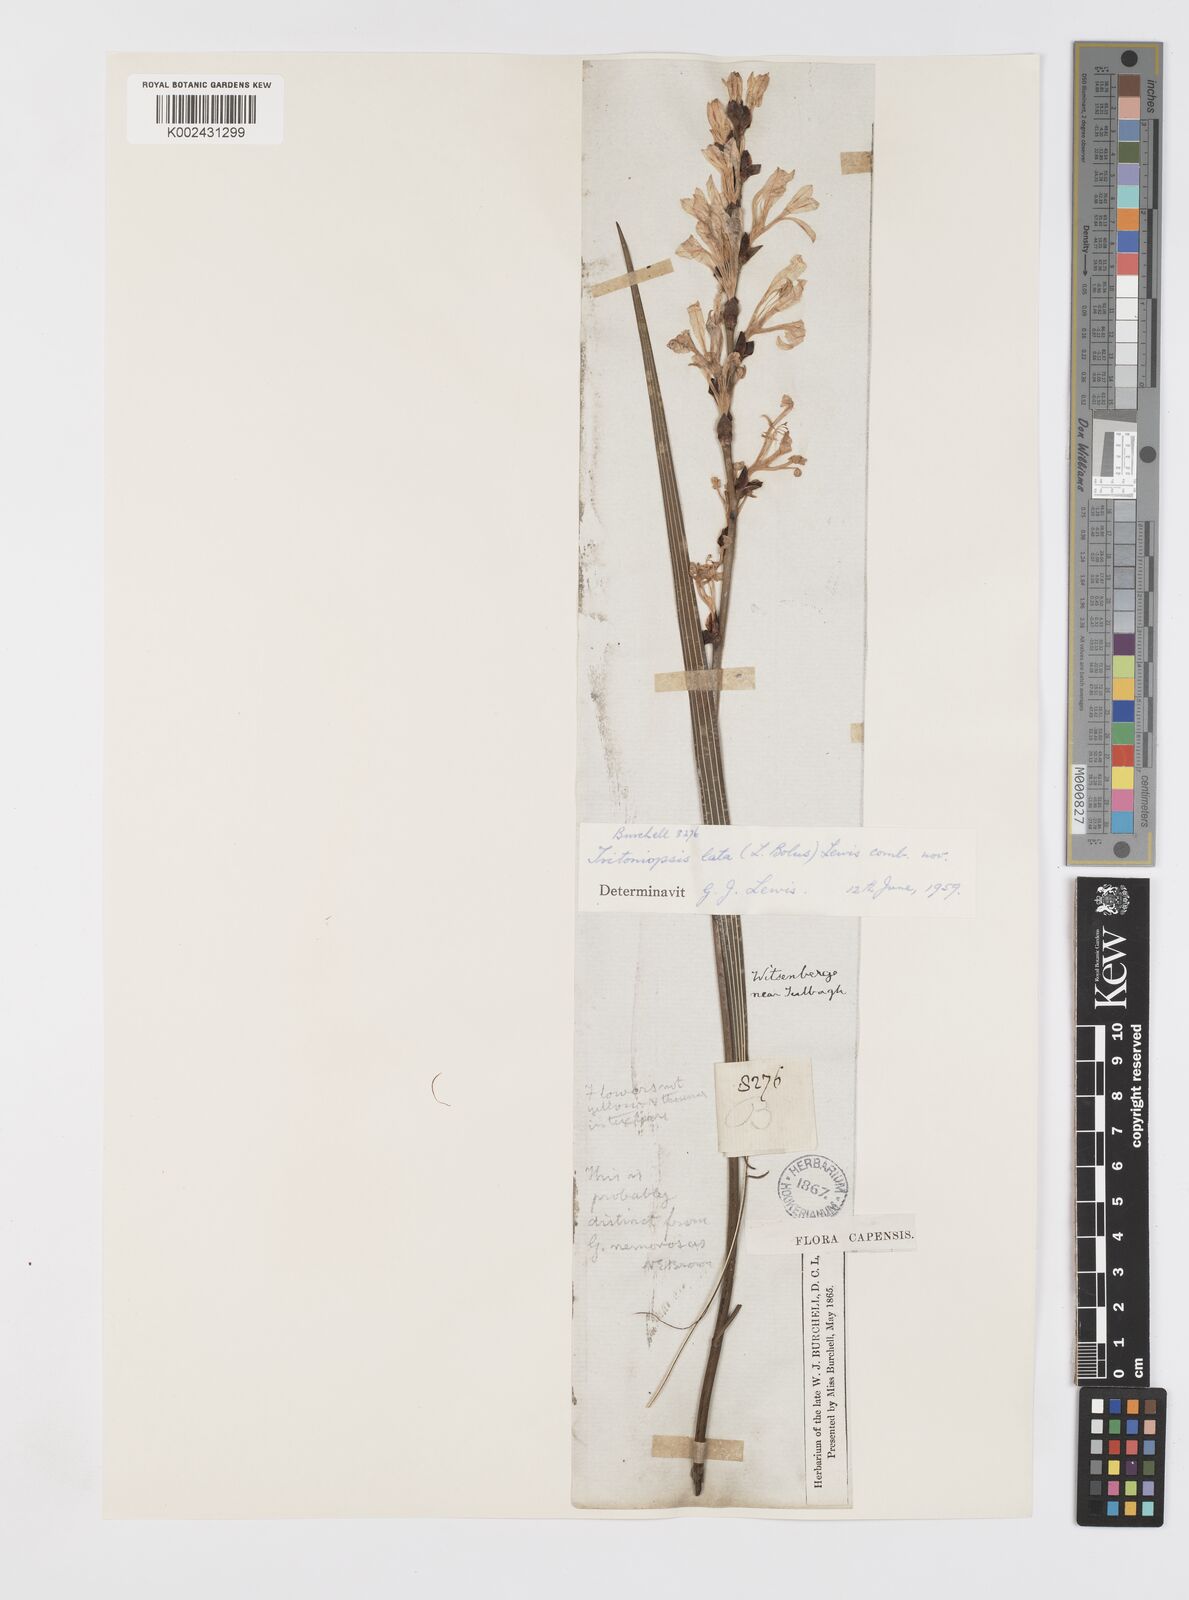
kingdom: Plantae
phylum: Tracheophyta
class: Liliopsida
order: Asparagales
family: Iridaceae
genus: Tritoniopsis
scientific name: Tritoniopsis lata
